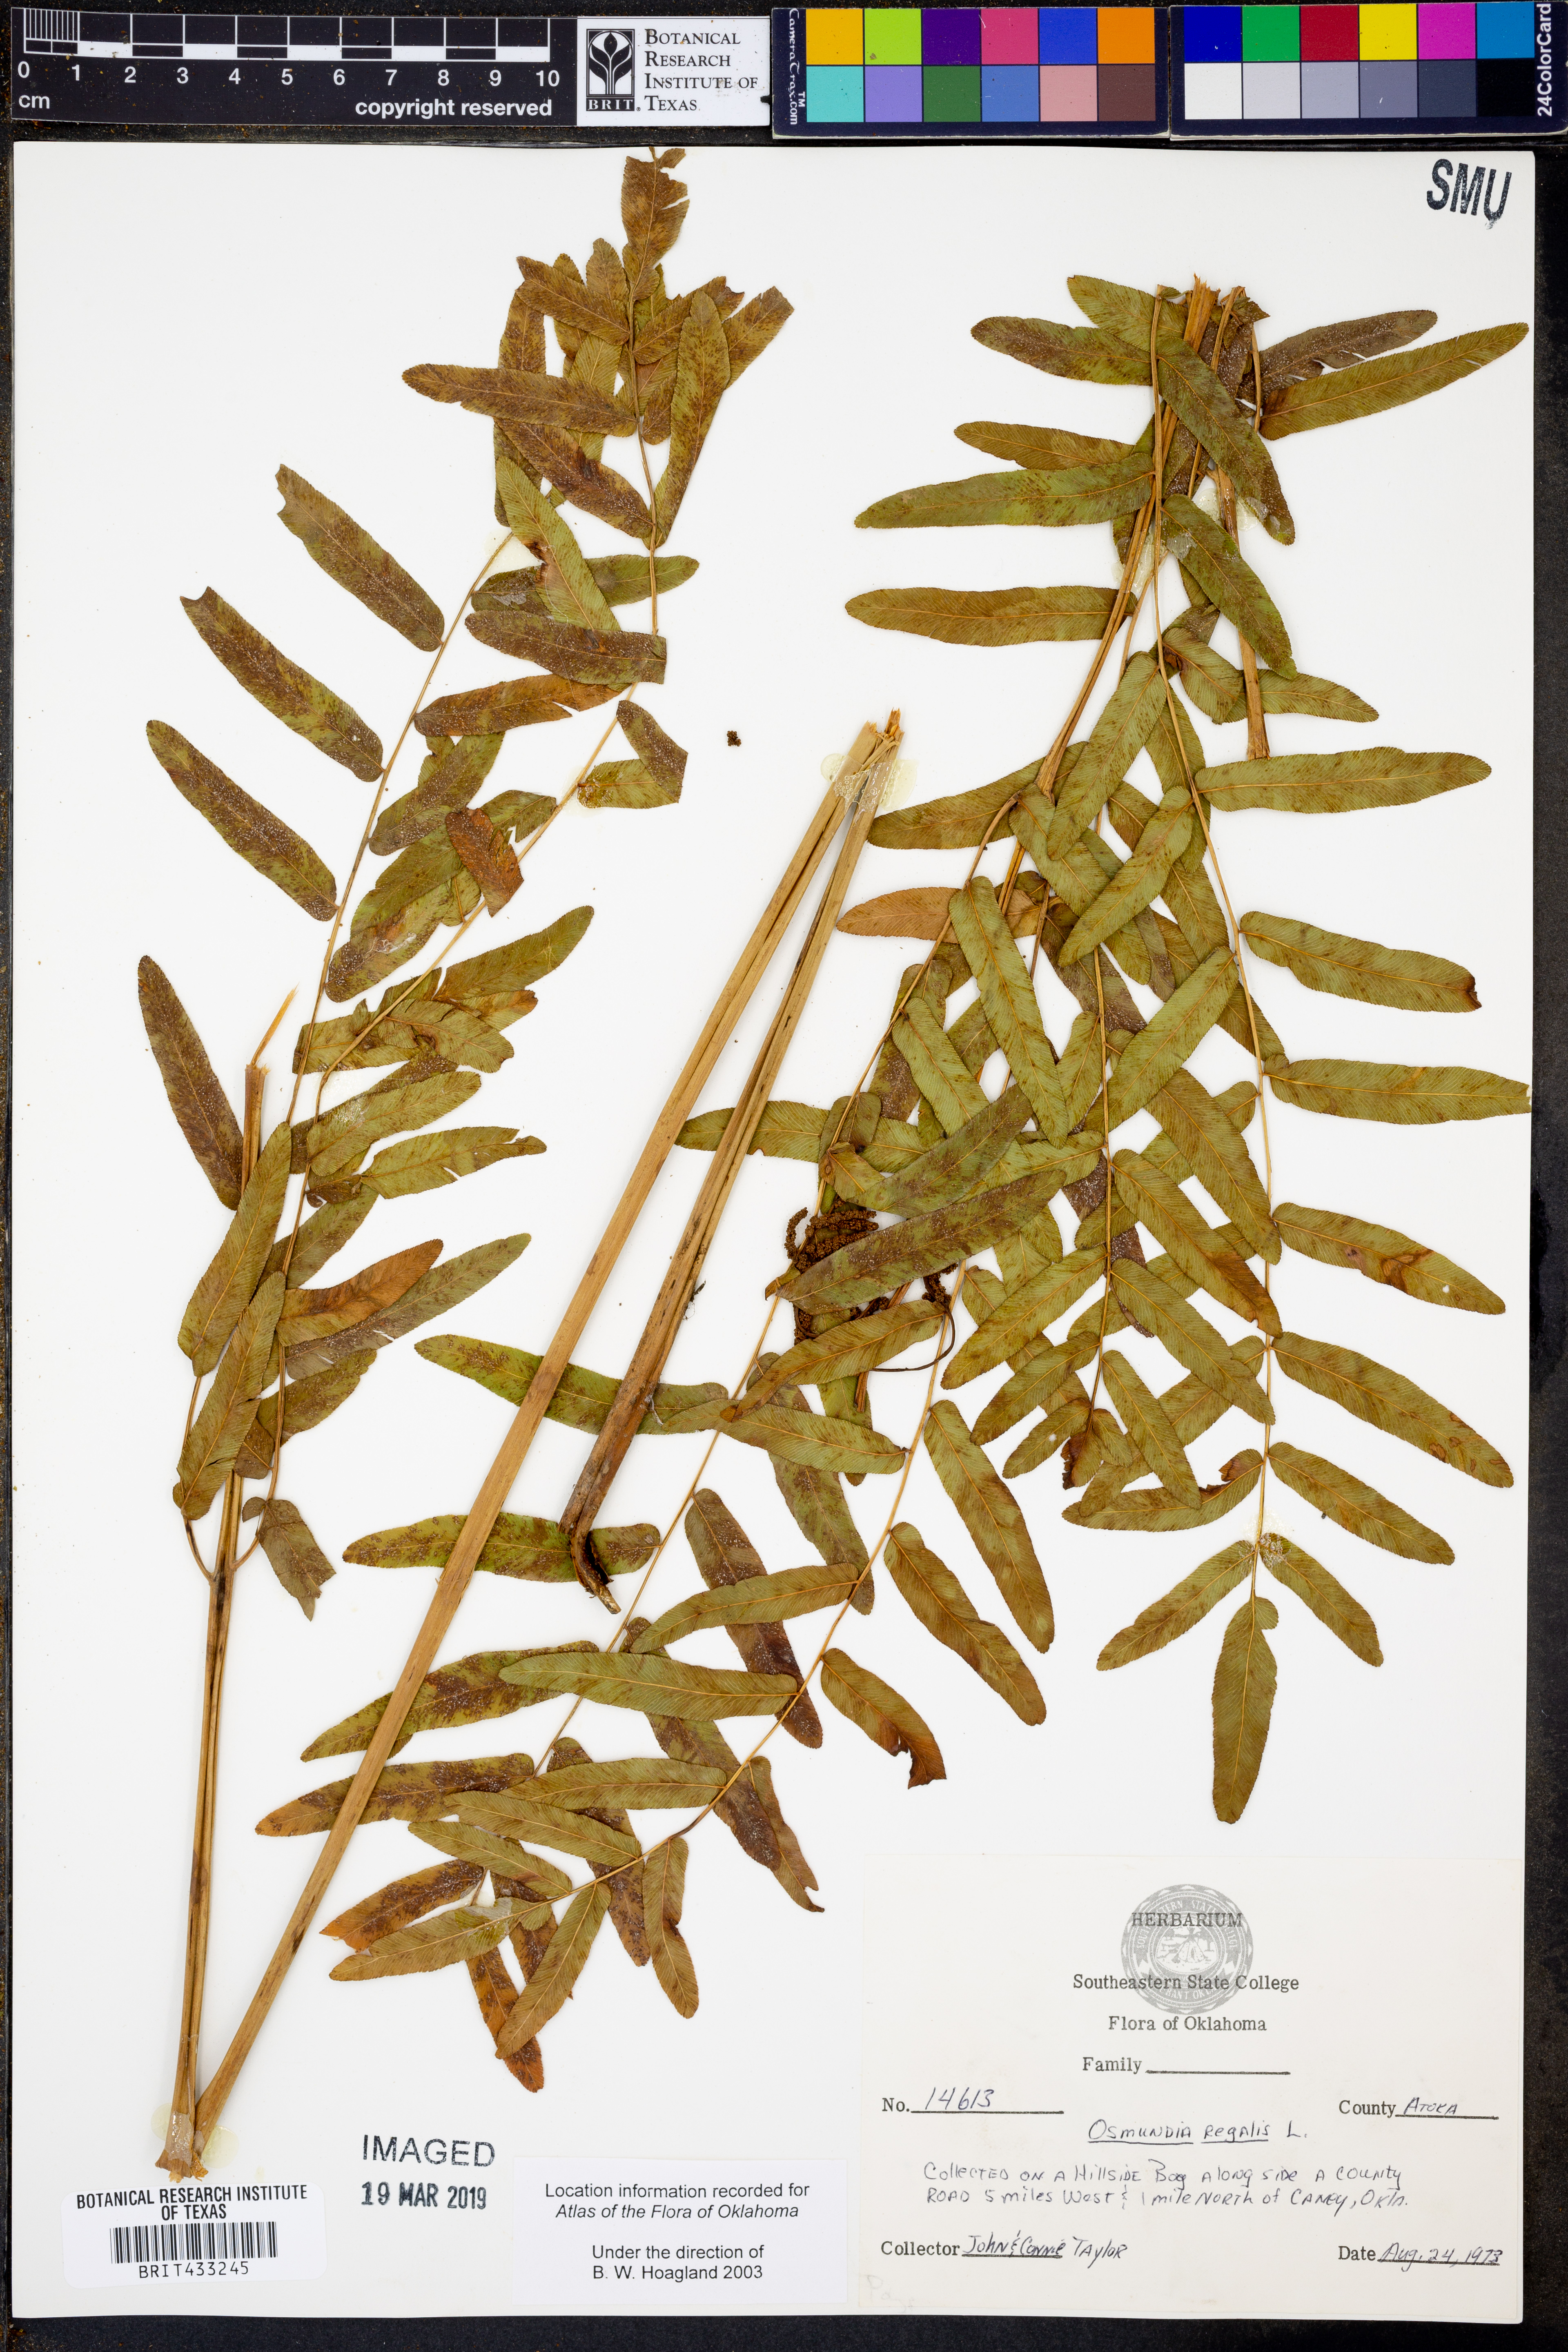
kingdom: Plantae
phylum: Tracheophyta
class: Polypodiopsida
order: Osmundales
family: Osmundaceae
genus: Osmunda
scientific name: Osmunda regalis
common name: Royal fern
